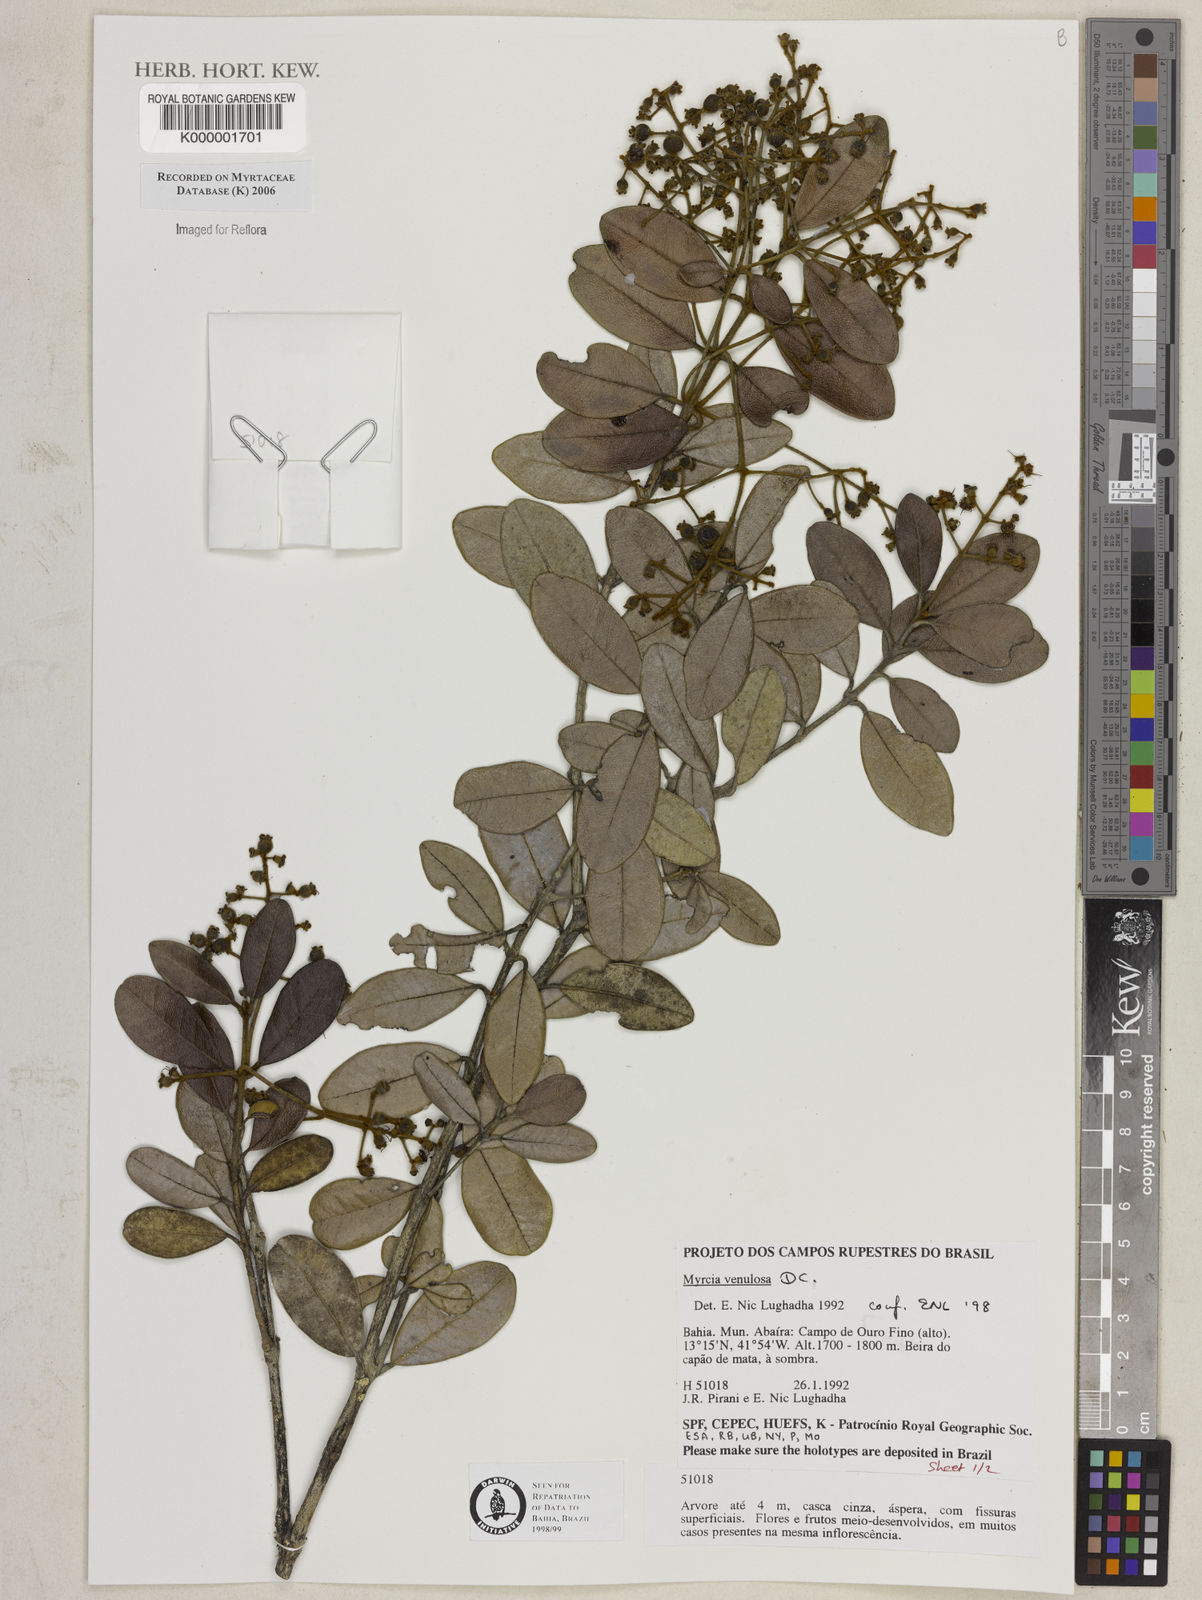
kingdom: Plantae
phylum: Tracheophyta
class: Magnoliopsida
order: Myrtales
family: Myrtaceae
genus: Myrcia
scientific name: Myrcia venulosa
